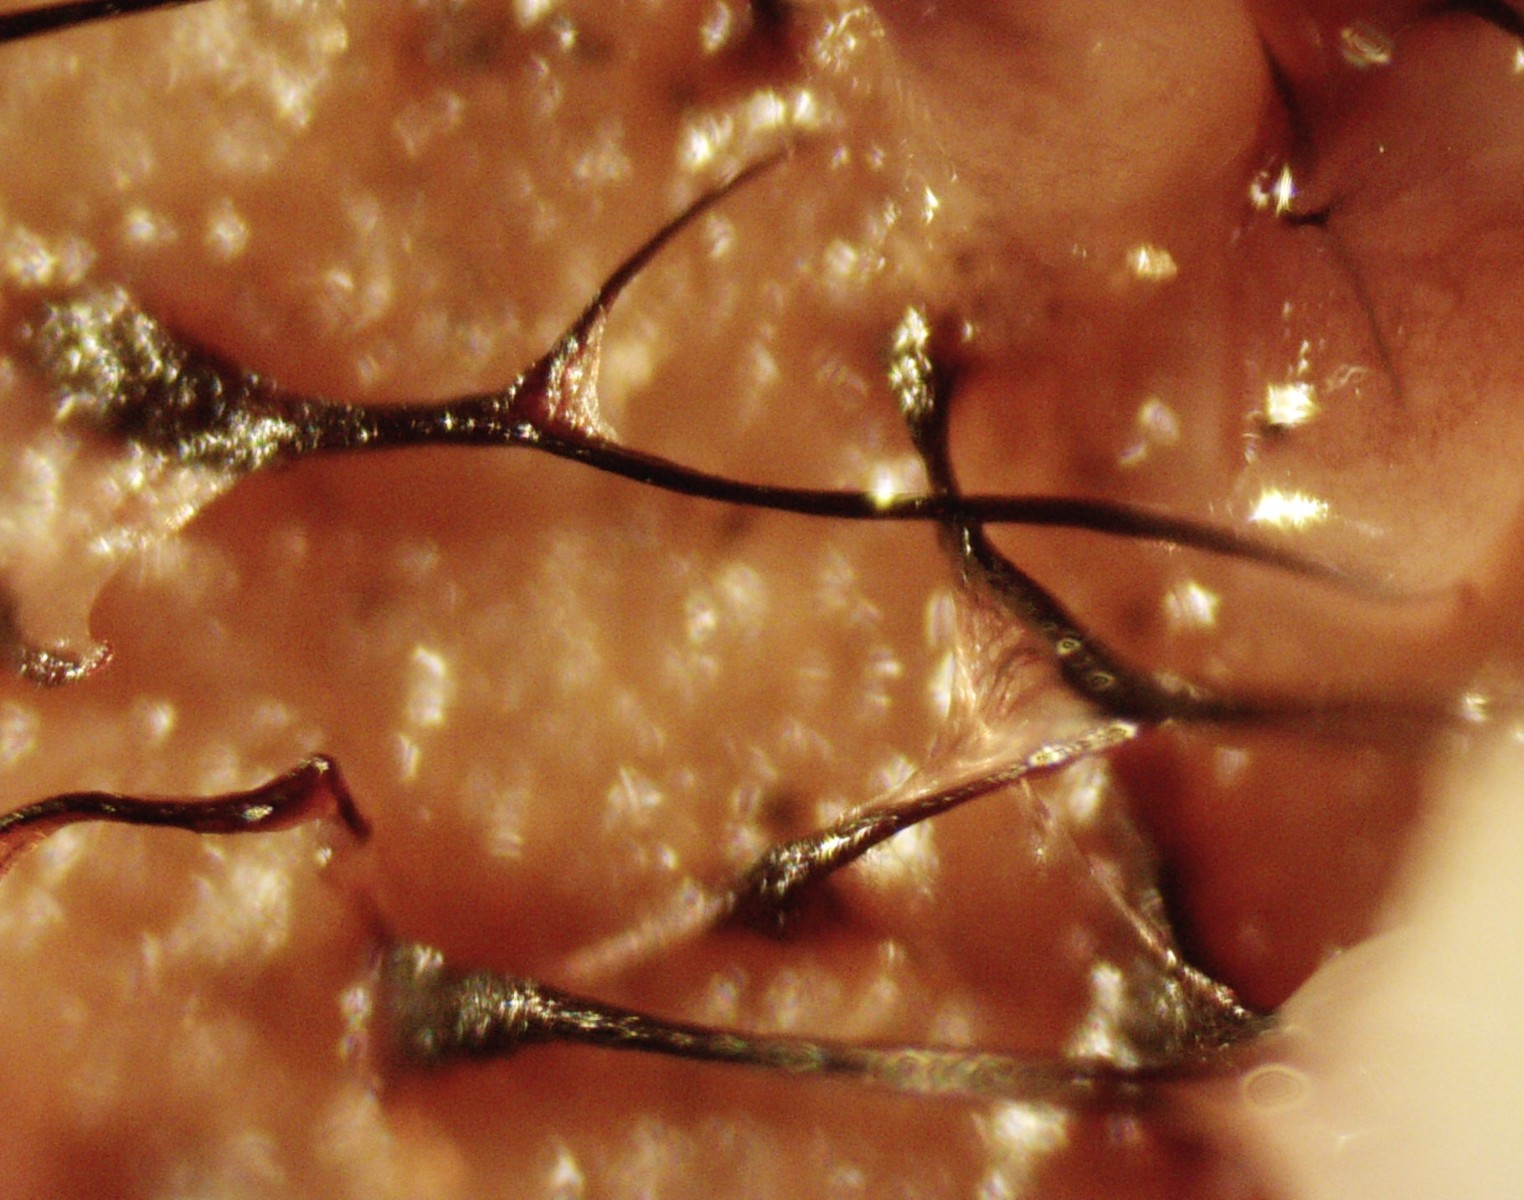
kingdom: Protozoa
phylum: Mycetozoa
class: Myxomycetes
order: Stemonitidales
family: Stemonitidaceae
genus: Comatricha
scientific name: Comatricha
